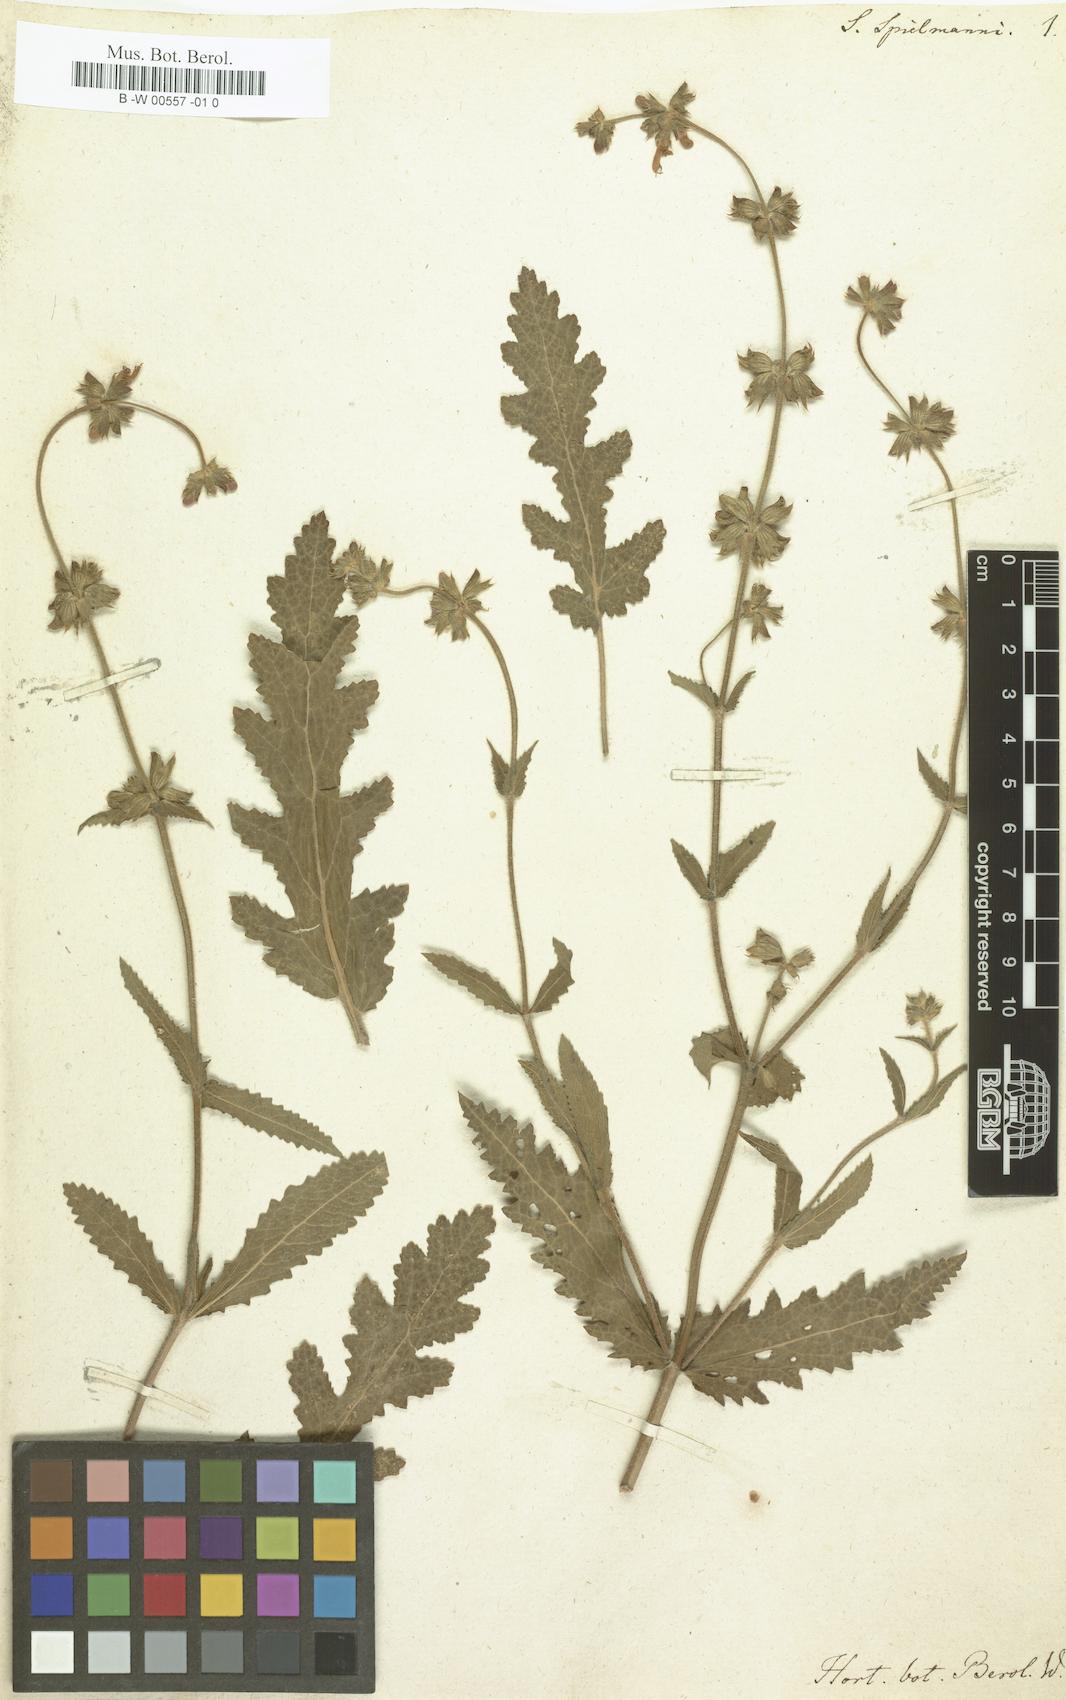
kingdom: Plantae
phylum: Tracheophyta
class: Magnoliopsida
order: Lamiales
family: Lamiaceae
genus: Salvia
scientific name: Salvia
